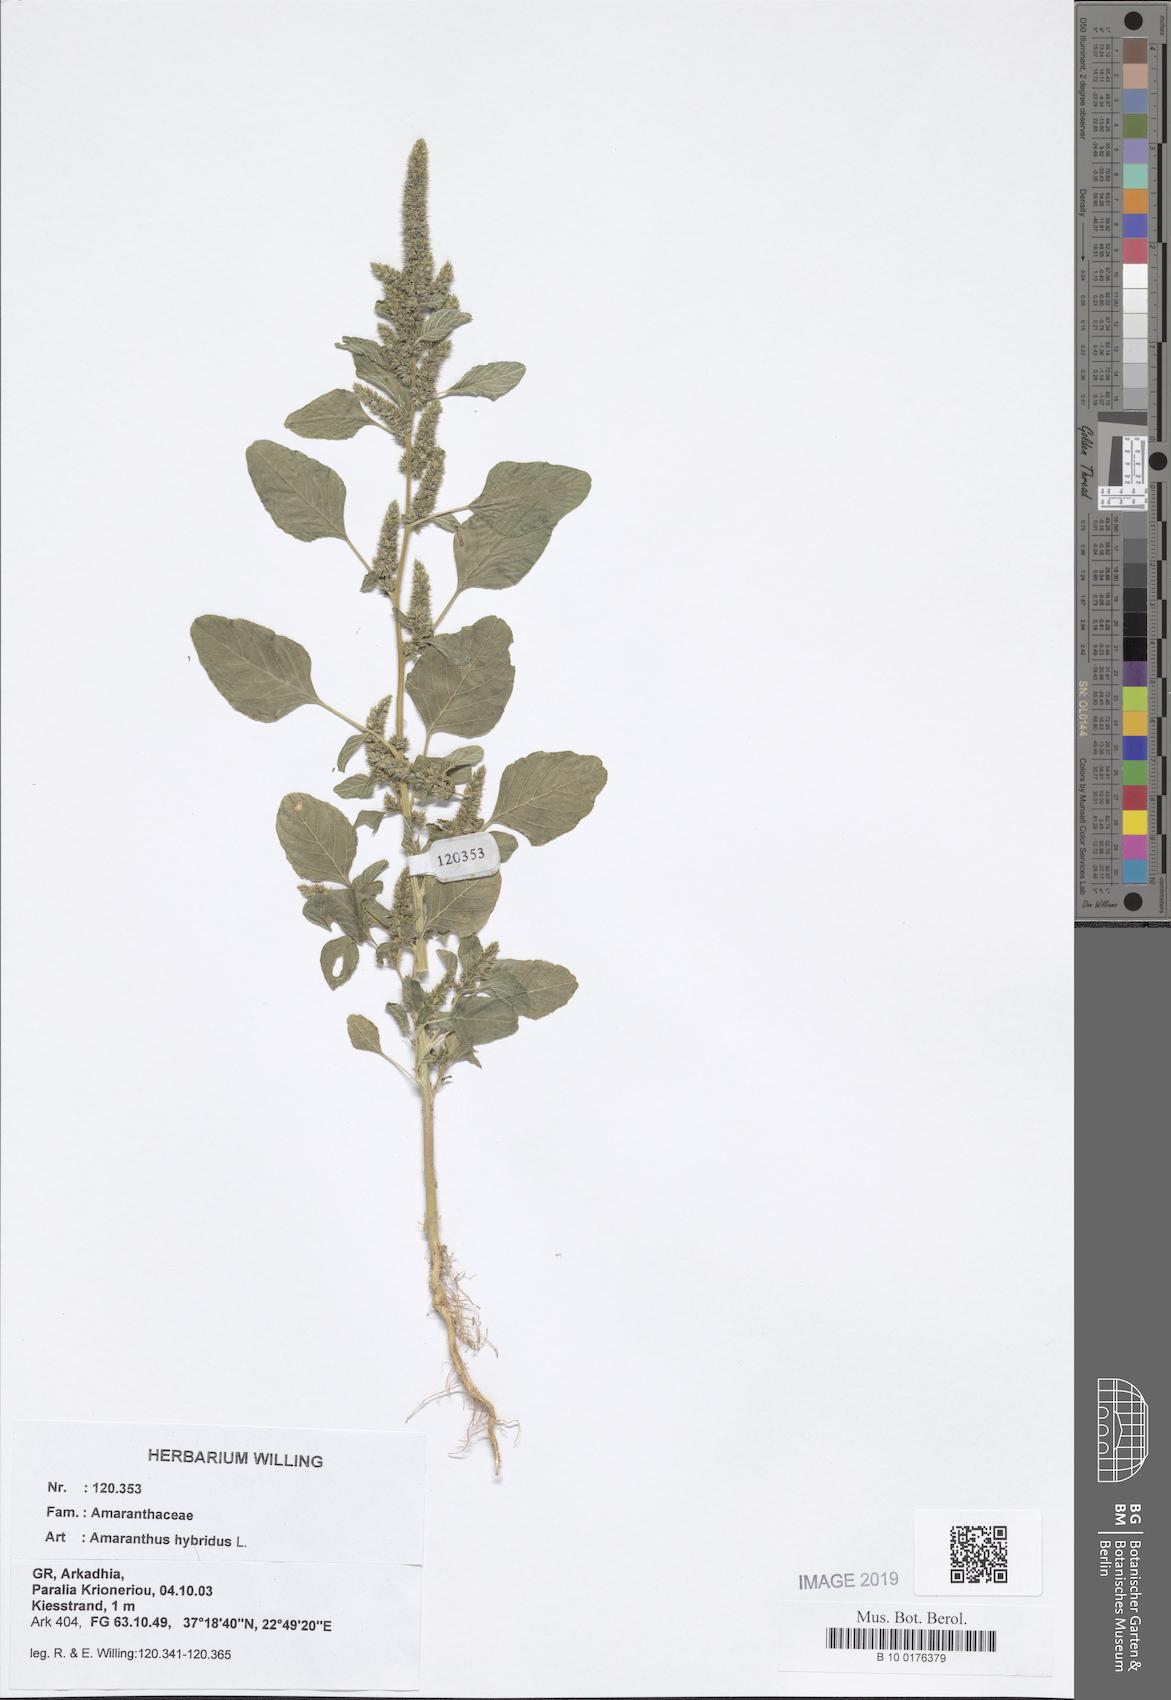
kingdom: Plantae
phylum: Tracheophyta
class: Magnoliopsida
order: Caryophyllales
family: Amaranthaceae
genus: Amaranthus
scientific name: Amaranthus hybridus
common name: Green amaranth
